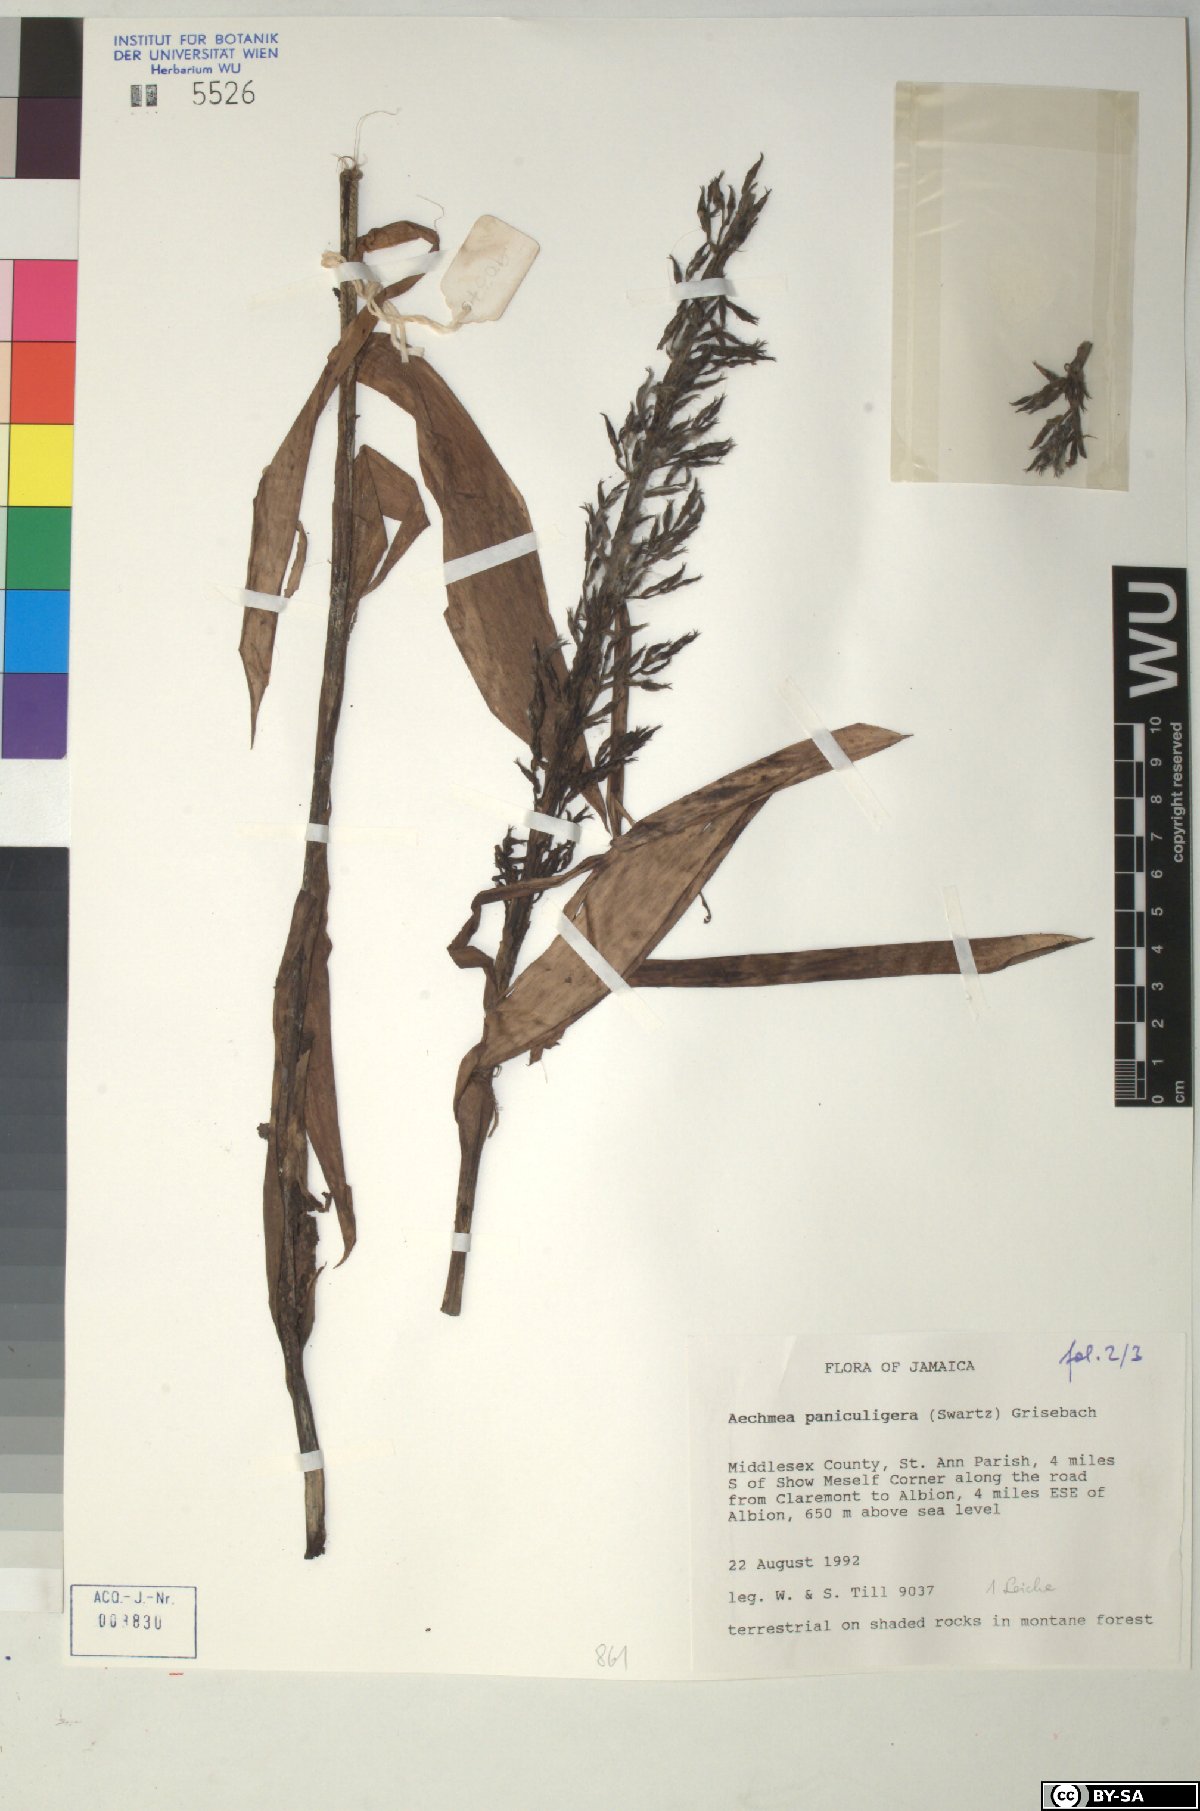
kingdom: Plantae
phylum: Tracheophyta
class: Liliopsida
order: Poales
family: Bromeliaceae
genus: Aechmea
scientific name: Aechmea paniculigera
